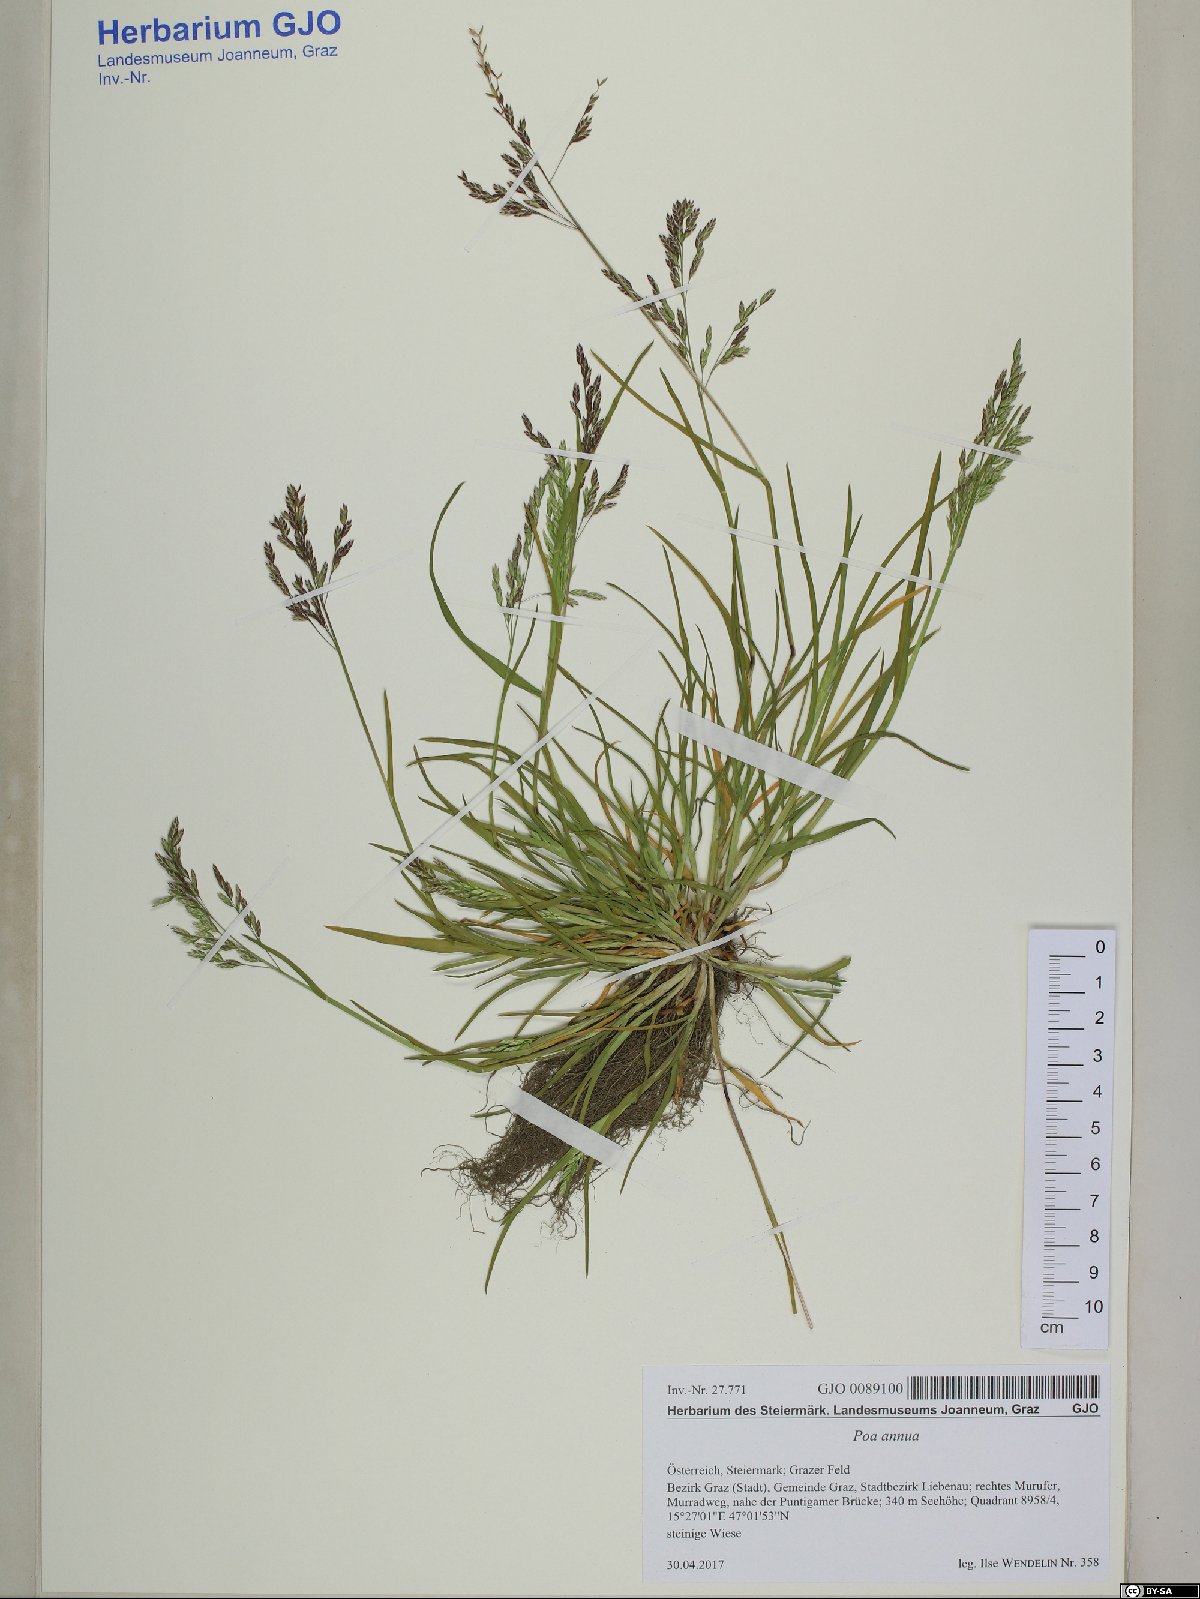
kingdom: Plantae
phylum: Tracheophyta
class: Liliopsida
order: Poales
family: Poaceae
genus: Poa
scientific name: Poa annua
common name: Annual bluegrass
